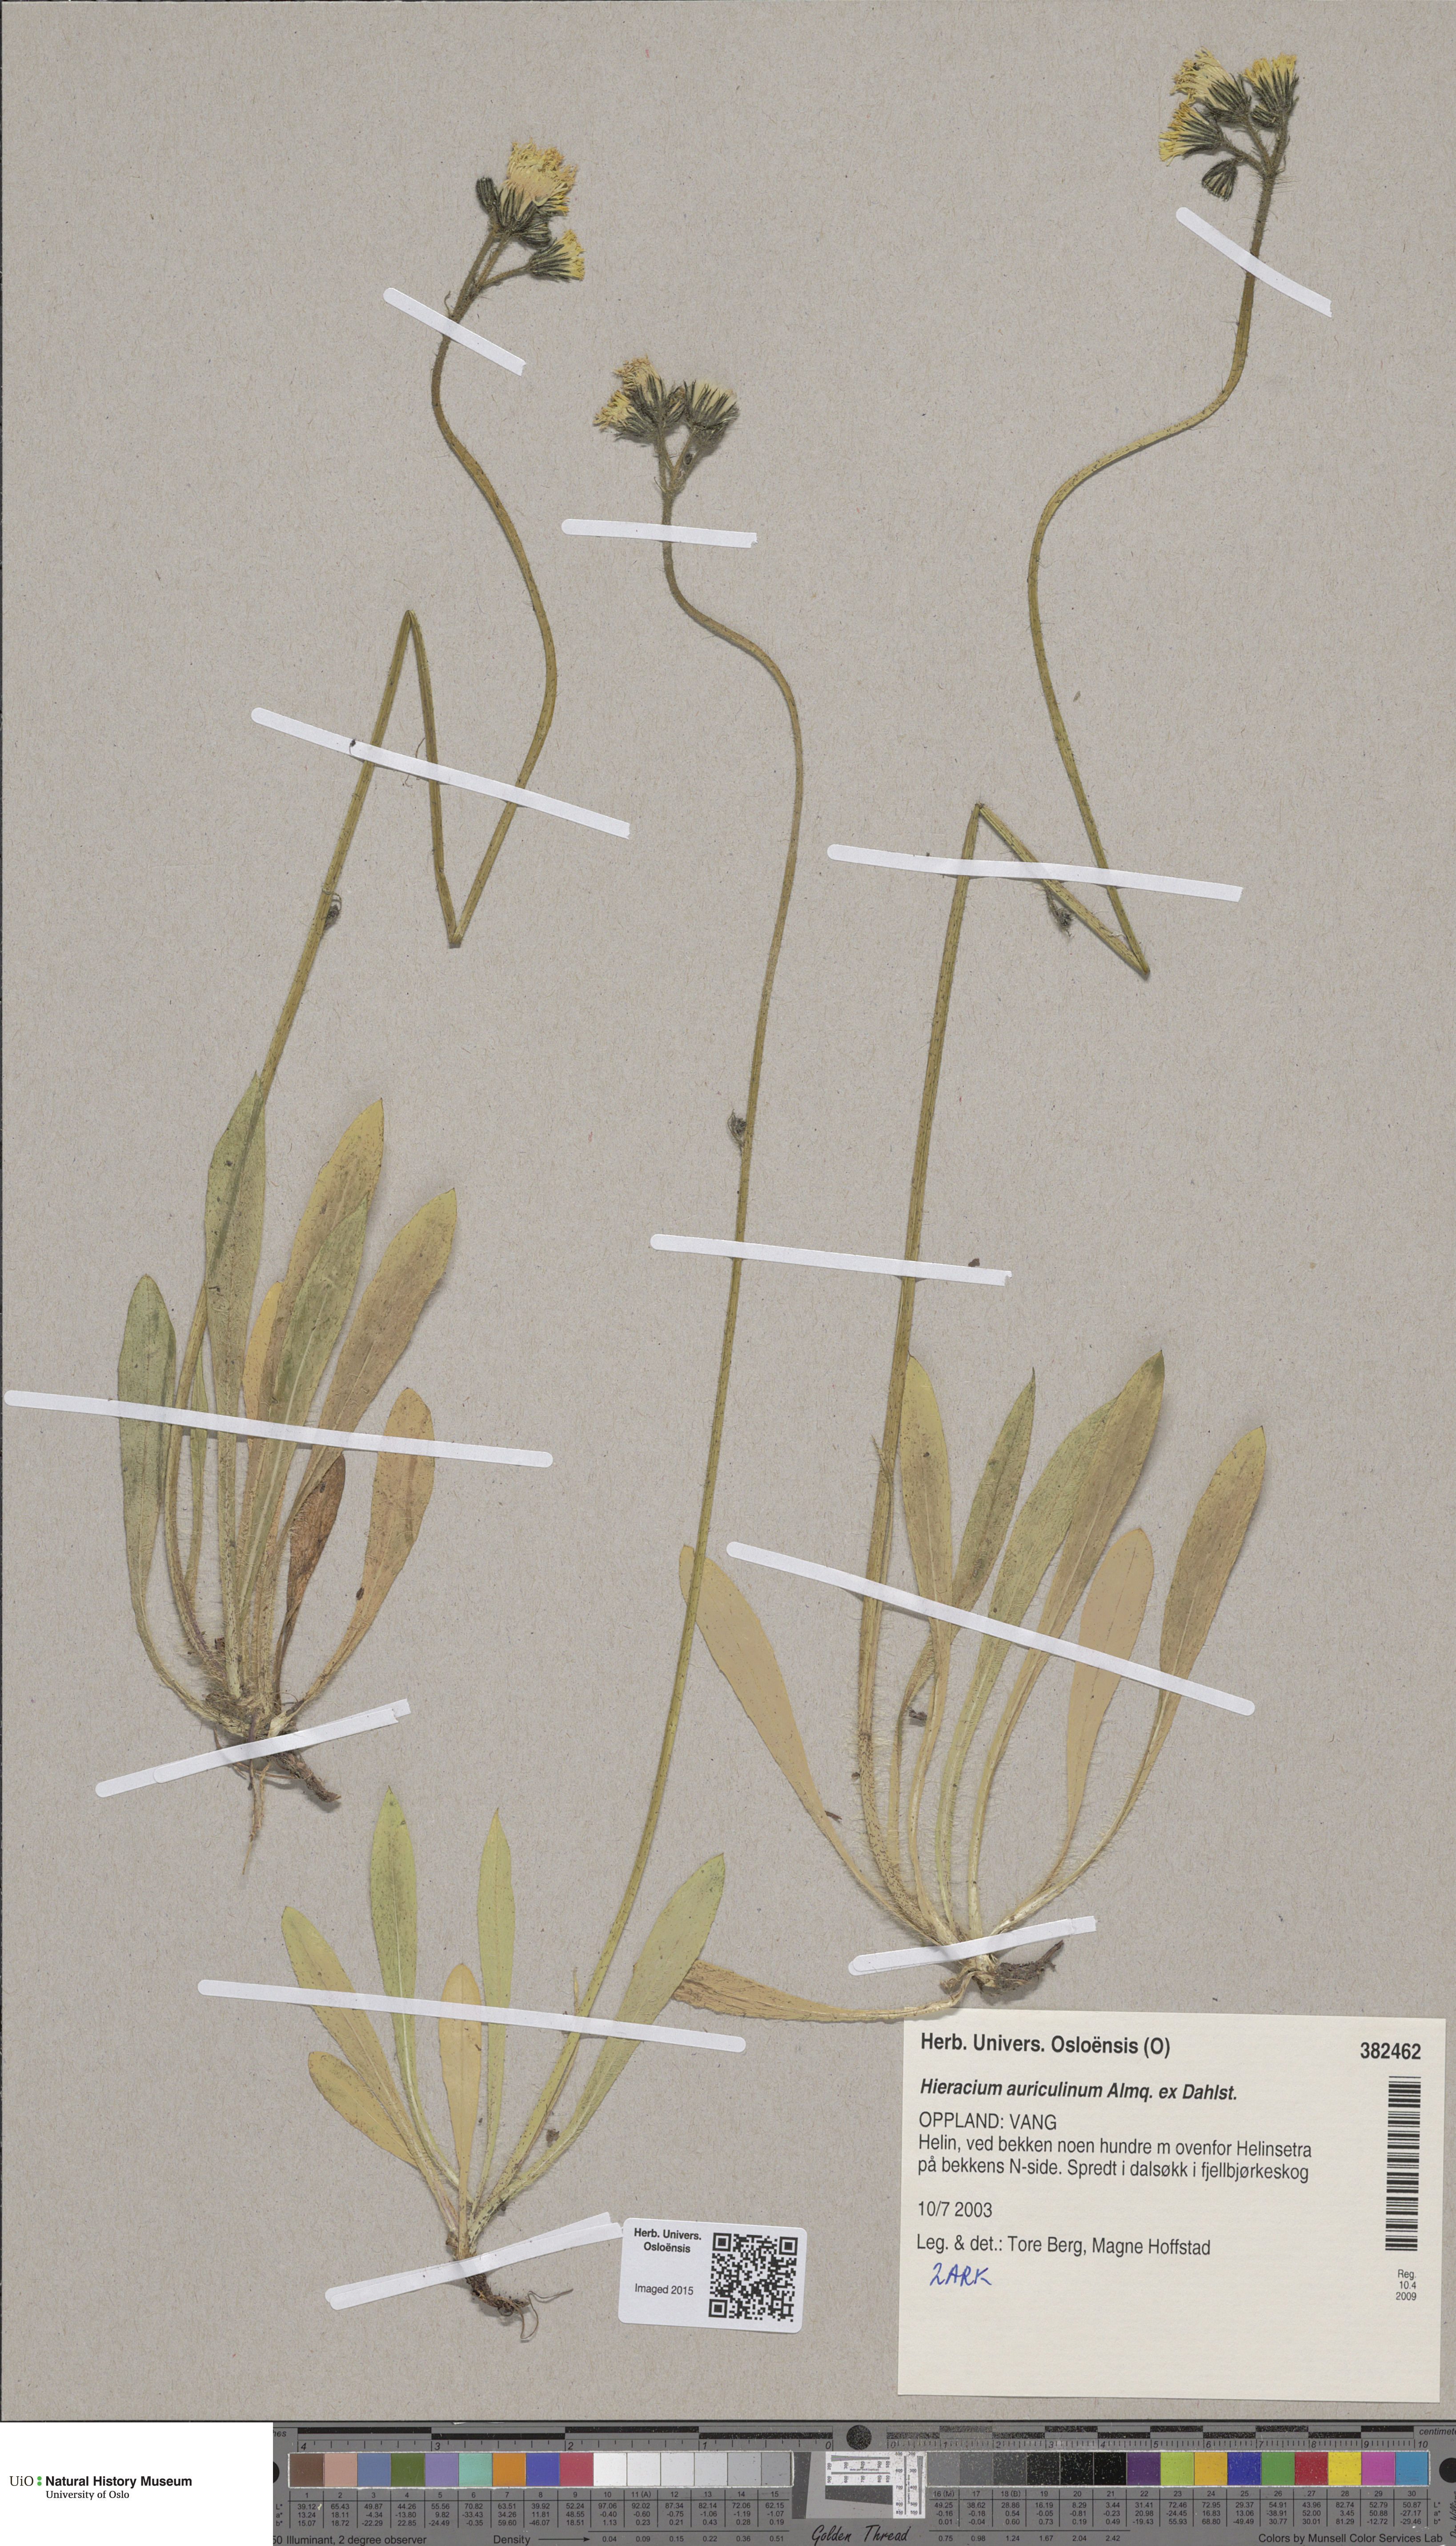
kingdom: Plantae
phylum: Tracheophyta
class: Magnoliopsida
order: Asterales
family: Asteraceae
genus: Pilosella
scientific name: Pilosella dubia
